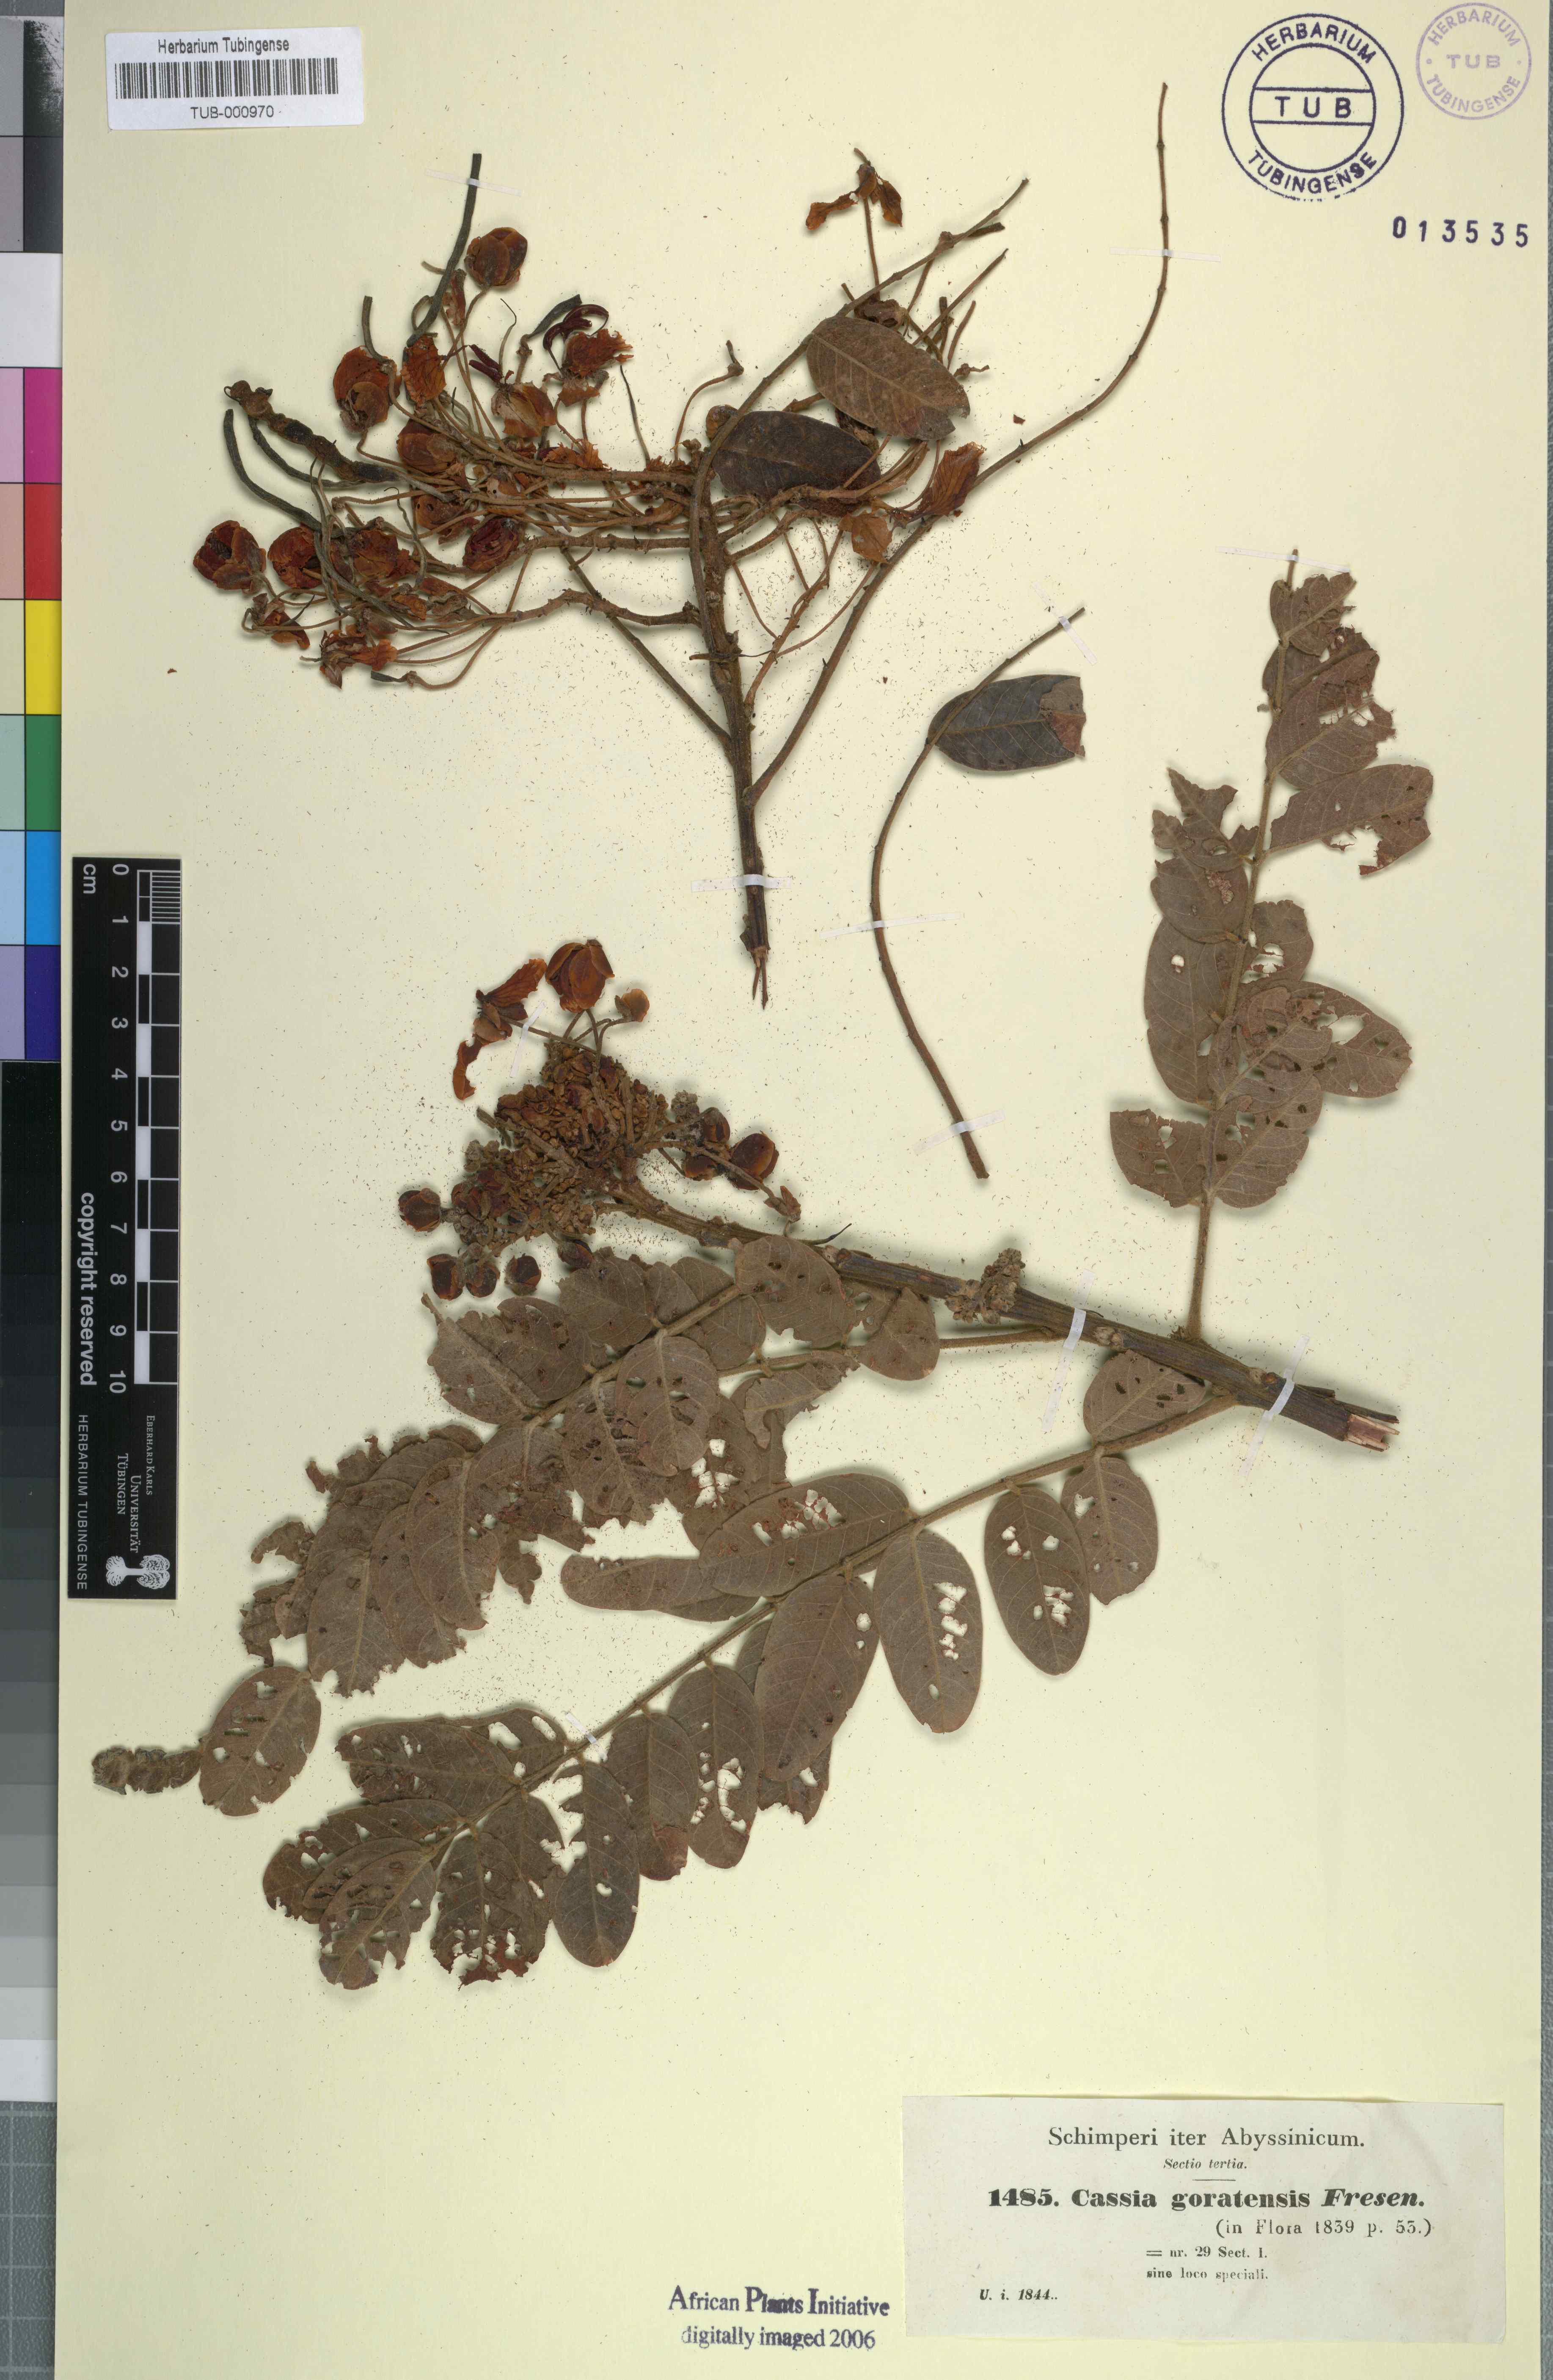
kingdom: Plantae
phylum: Tracheophyta
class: Magnoliopsida
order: Fabales
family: Fabaceae
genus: Senna
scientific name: Senna singueana
